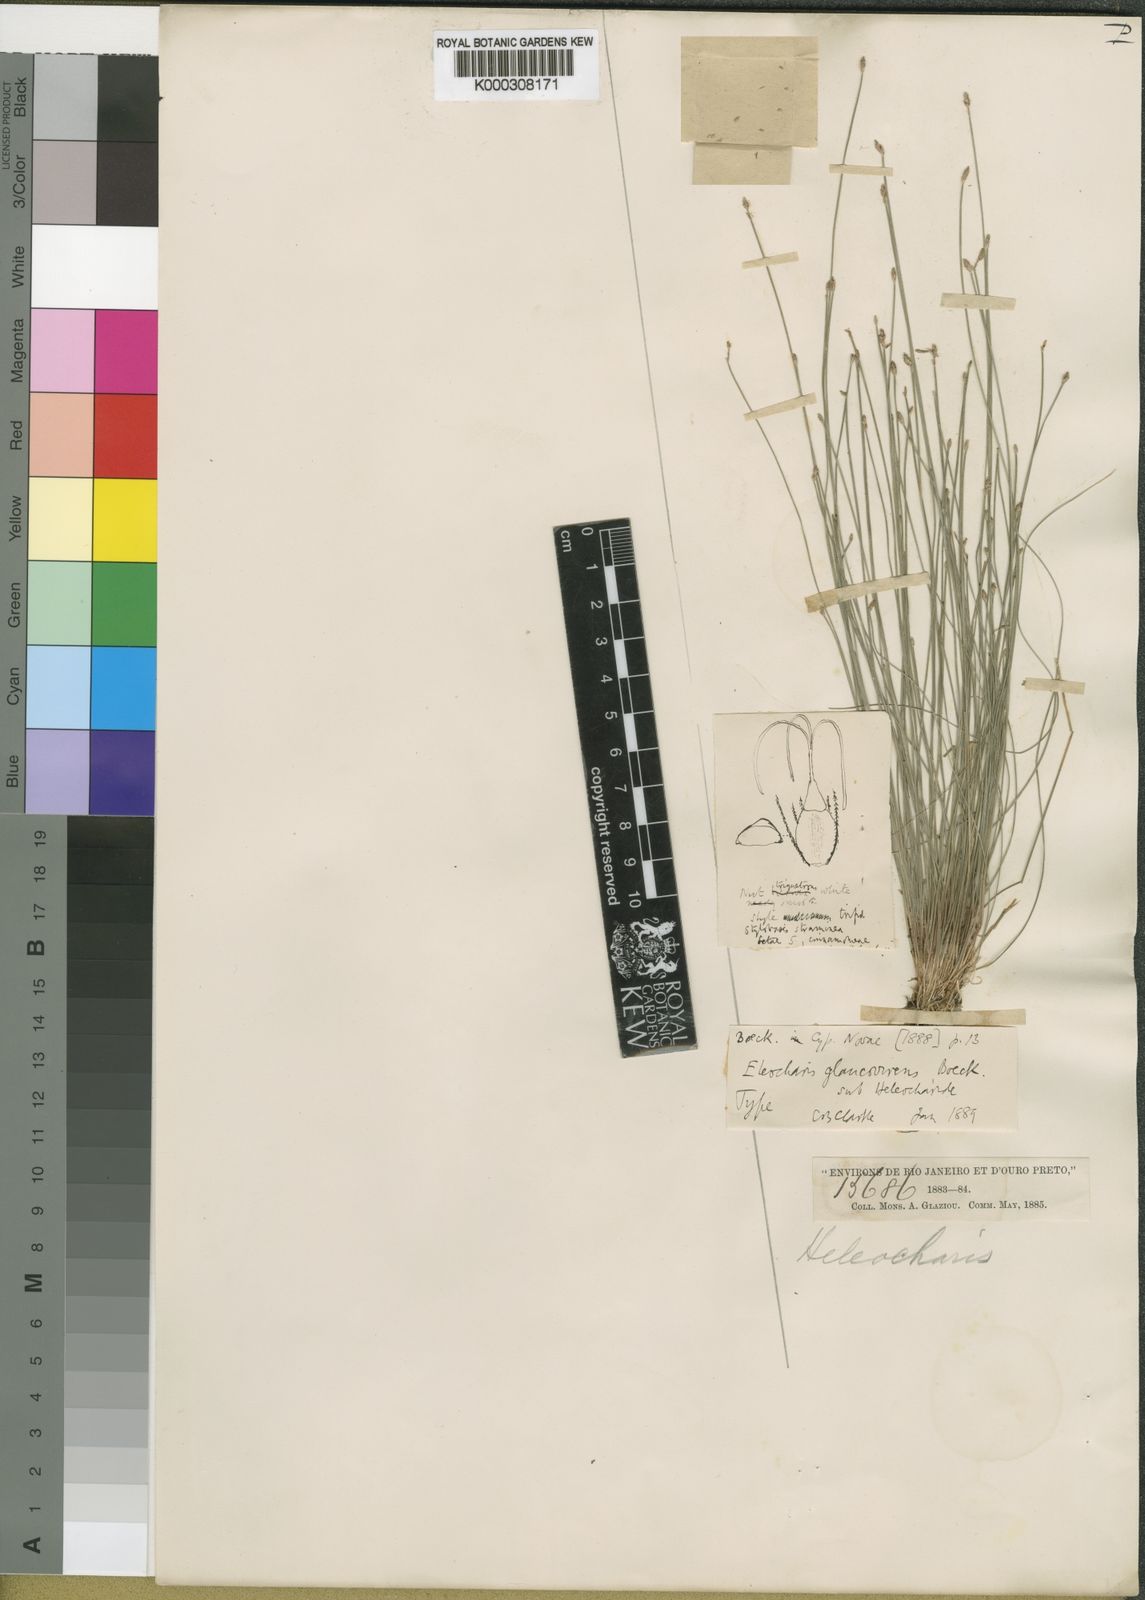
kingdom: Plantae
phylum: Tracheophyta
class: Liliopsida
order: Poales
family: Cyperaceae
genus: Eleocharis
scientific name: Eleocharis glaucovirens
